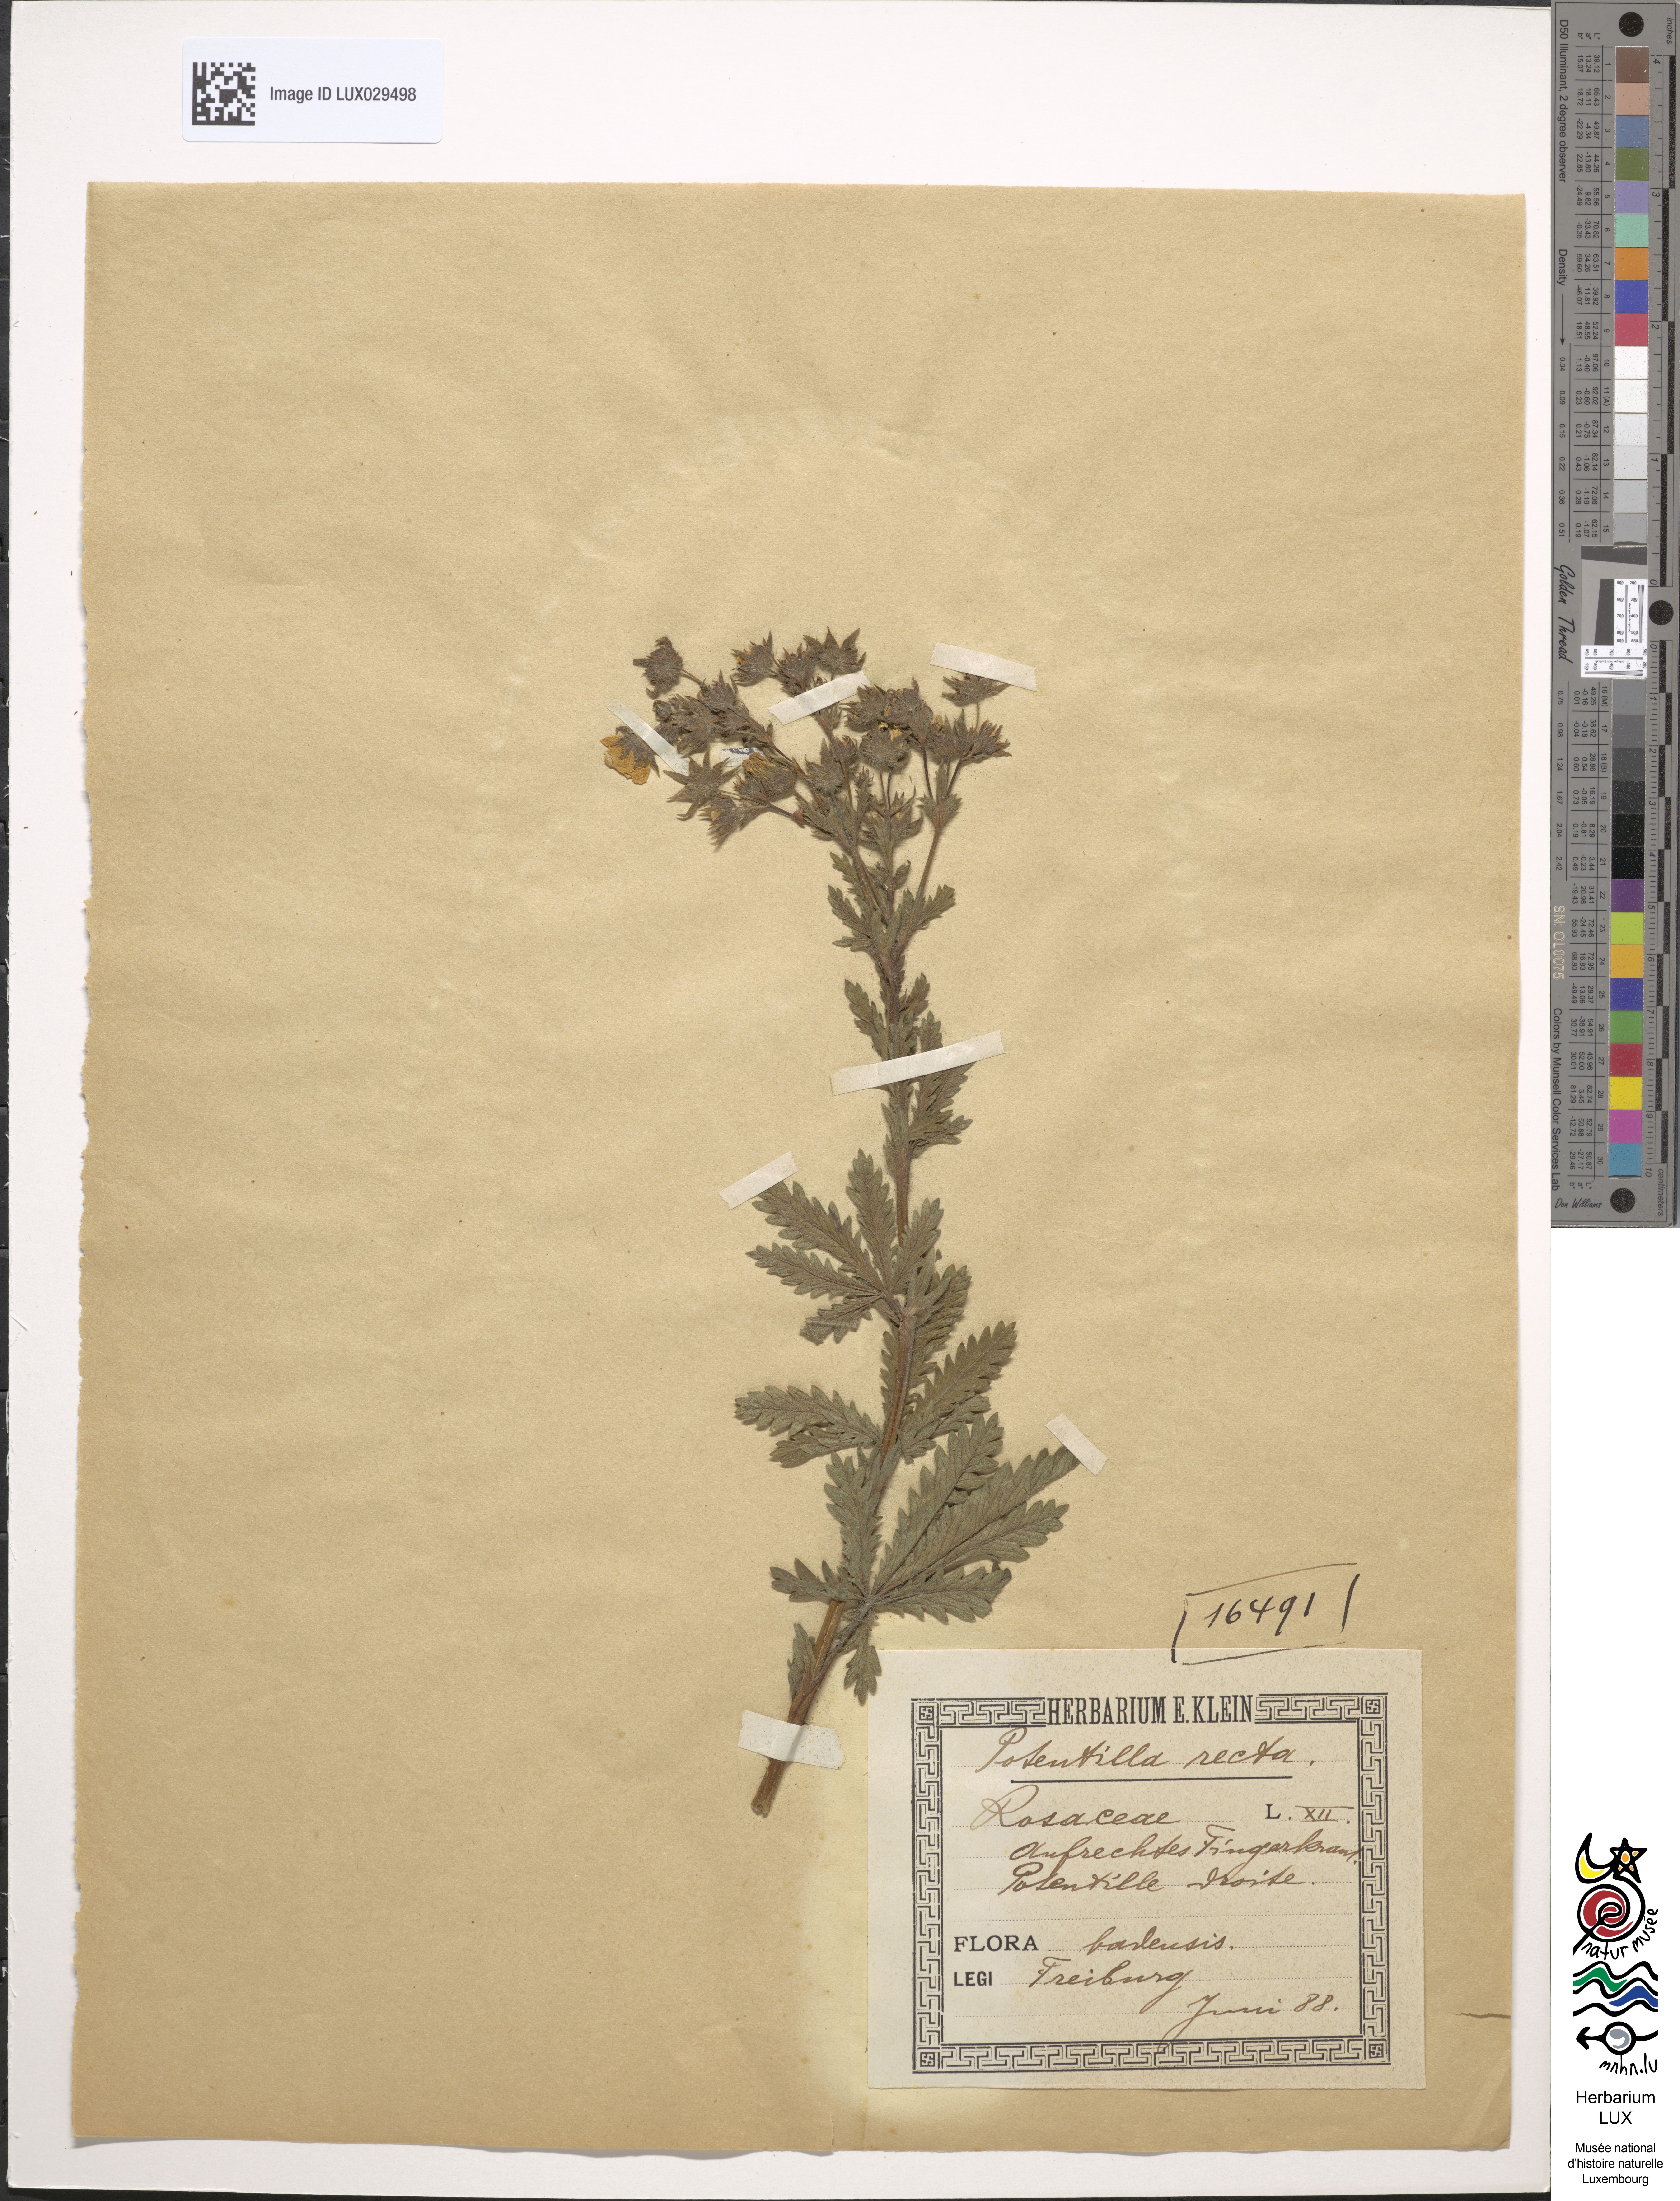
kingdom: Plantae
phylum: Tracheophyta
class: Magnoliopsida
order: Rosales
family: Rosaceae
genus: Potentilla
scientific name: Potentilla recta
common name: Sulphur cinquefoil
